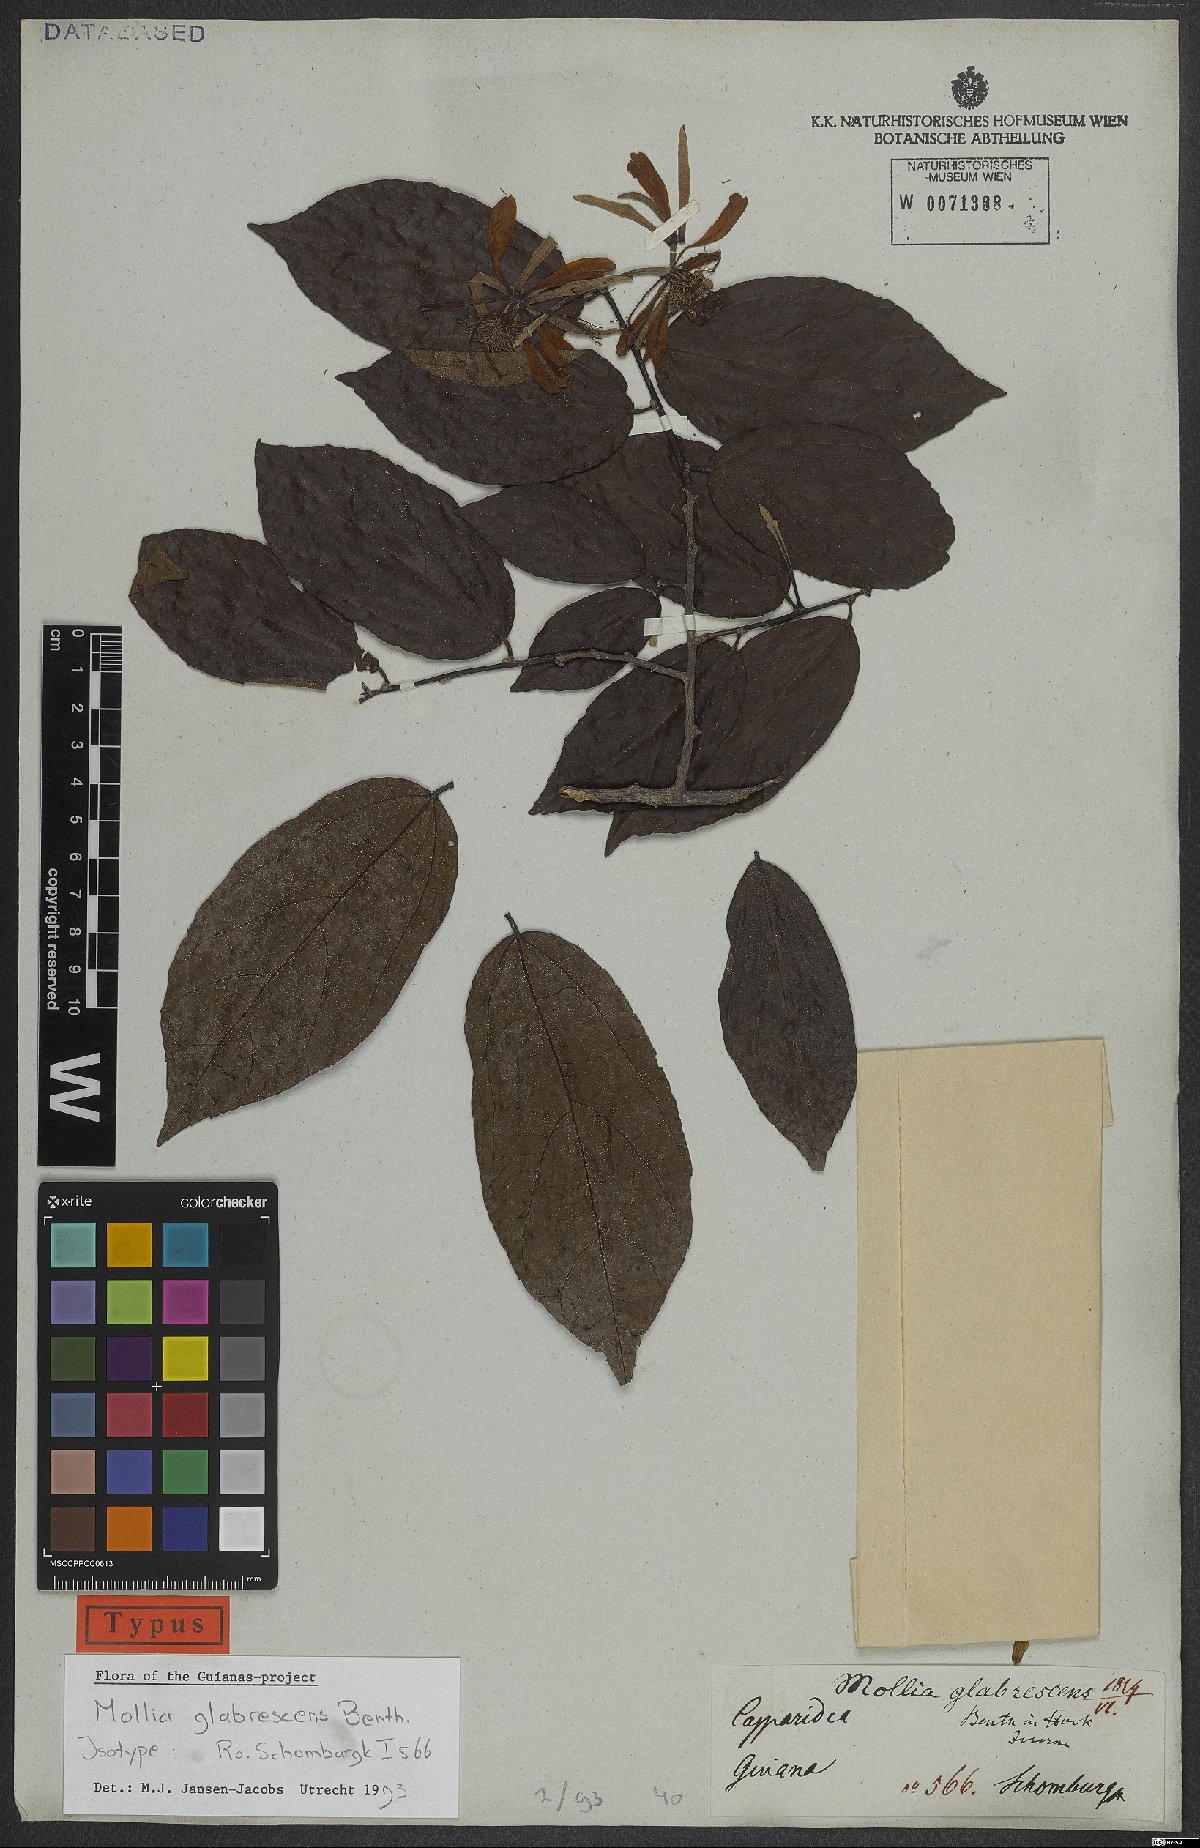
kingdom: Plantae
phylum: Tracheophyta
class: Magnoliopsida
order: Malvales
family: Malvaceae
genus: Mollia
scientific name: Mollia glabrescens
